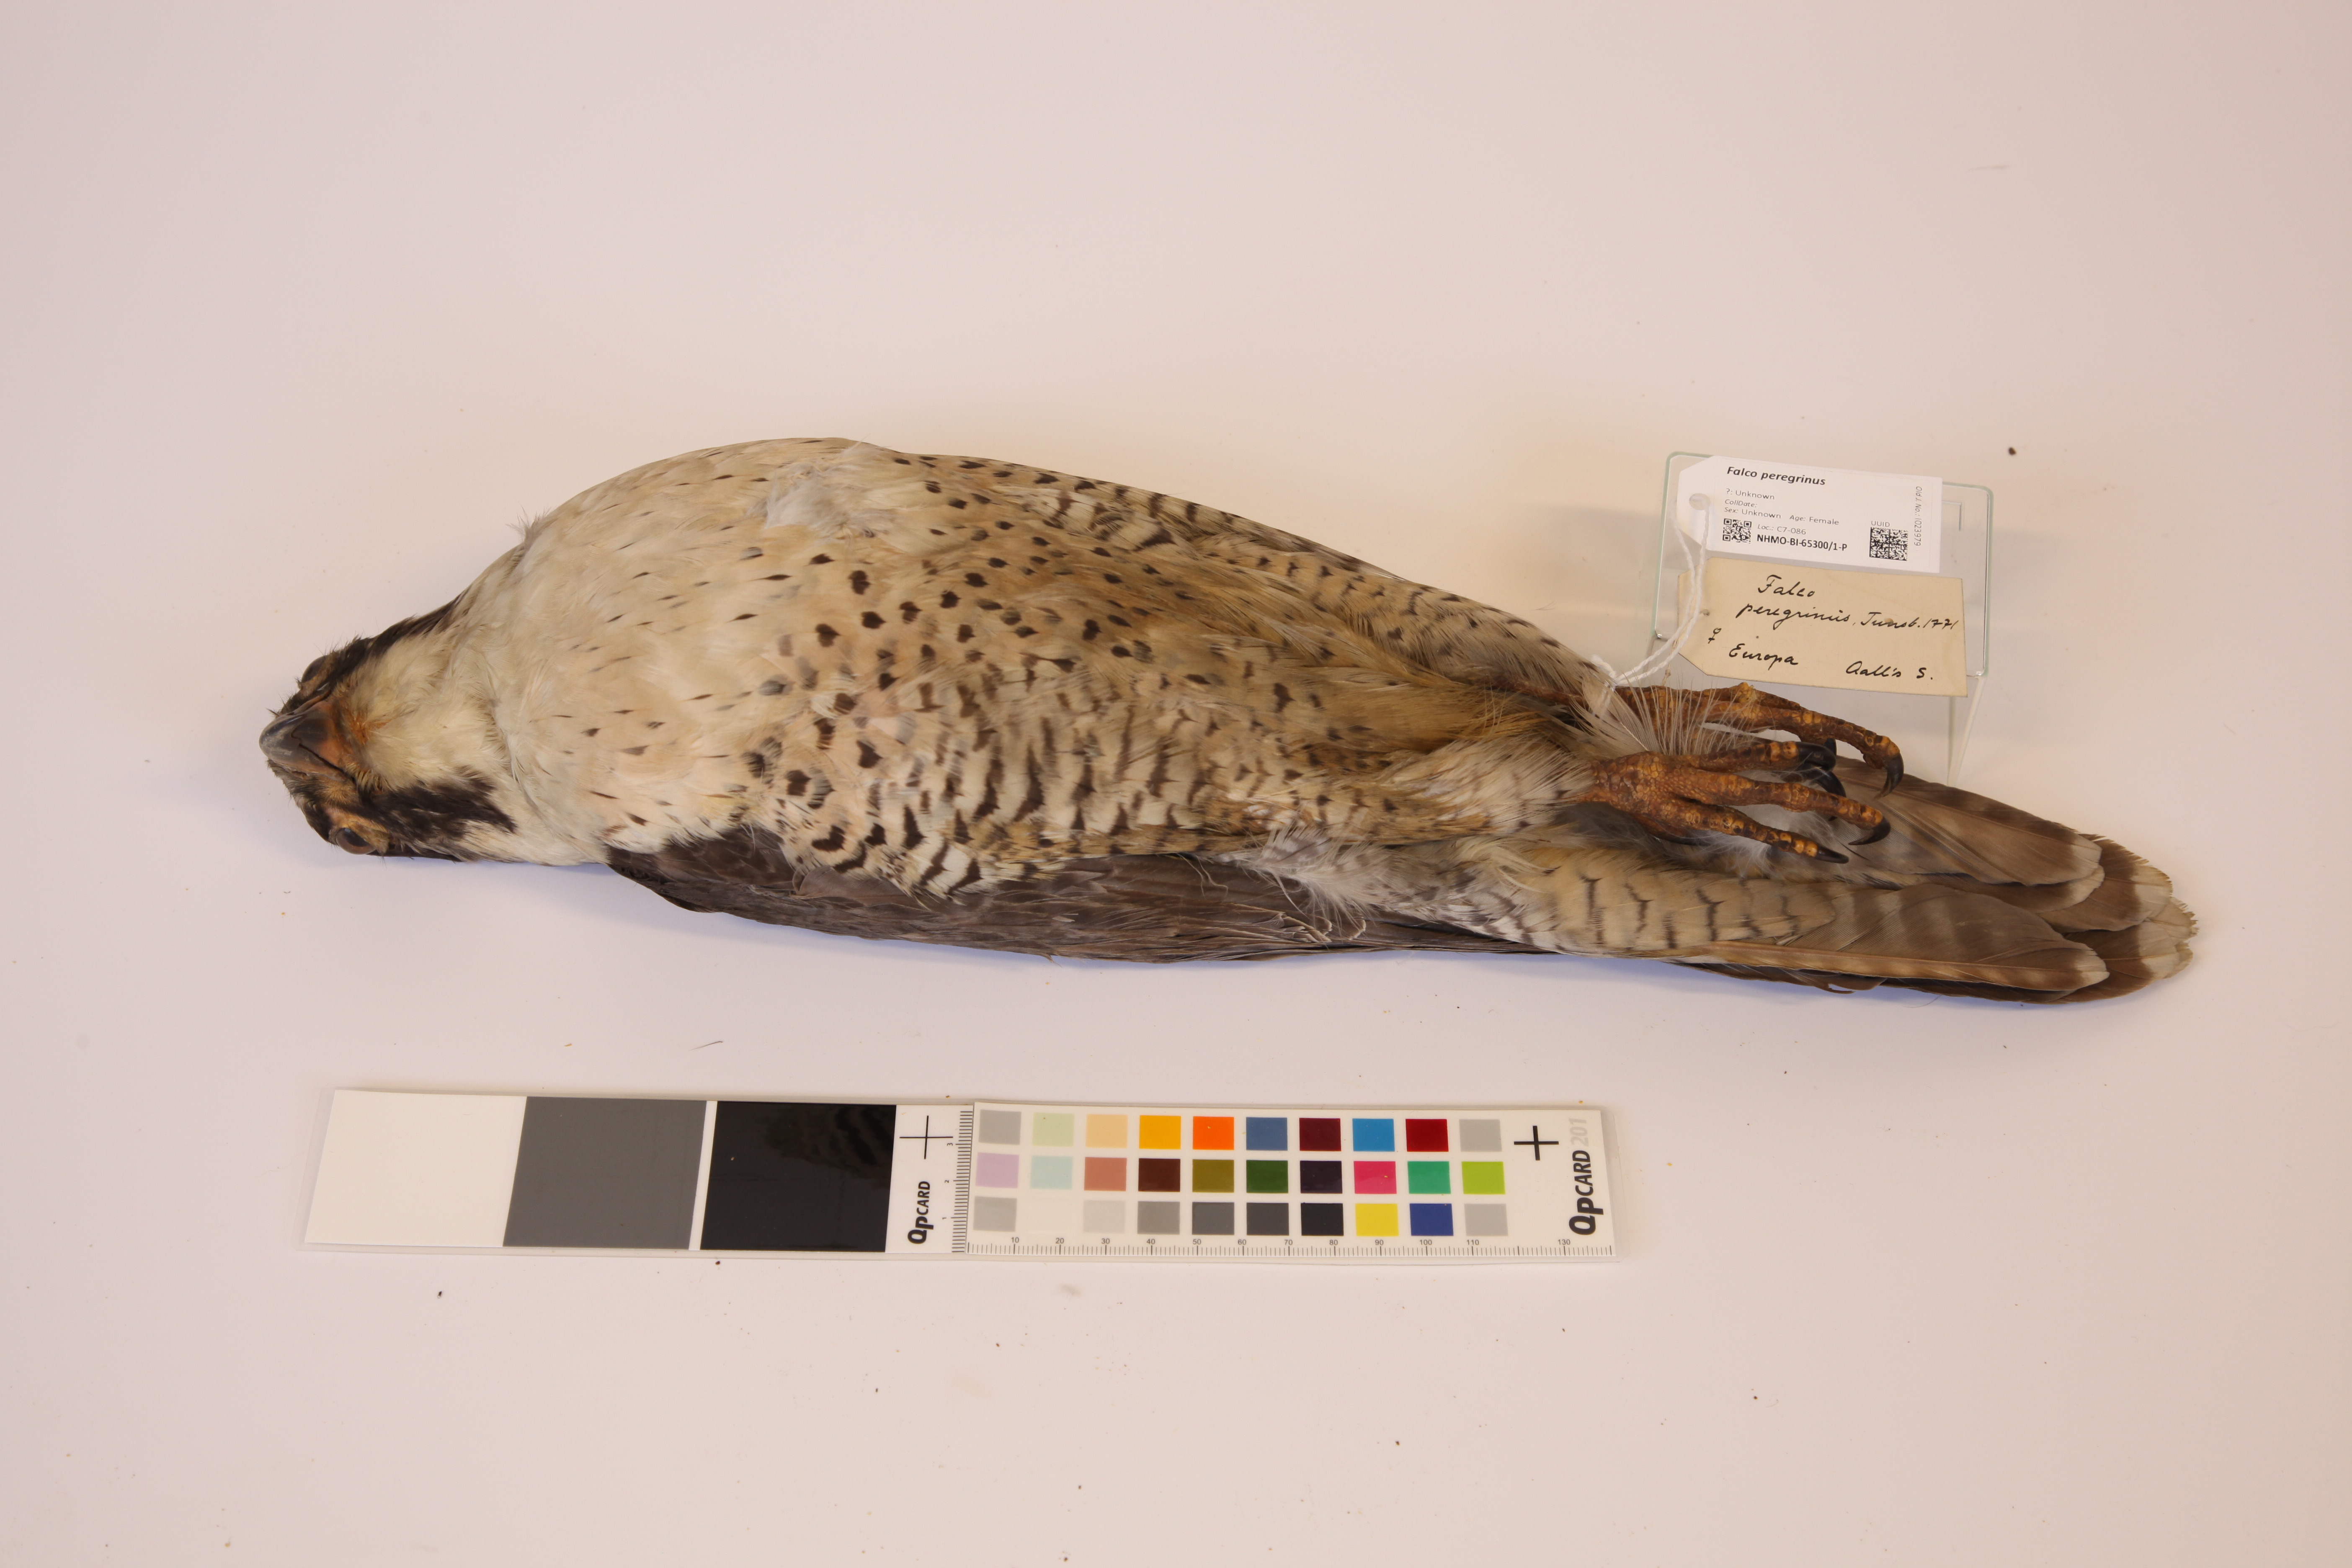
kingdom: Animalia
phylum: Chordata
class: Aves
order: Falconiformes
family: Falconidae
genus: Falco
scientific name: Falco peregrinus
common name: Peregrine falcon
